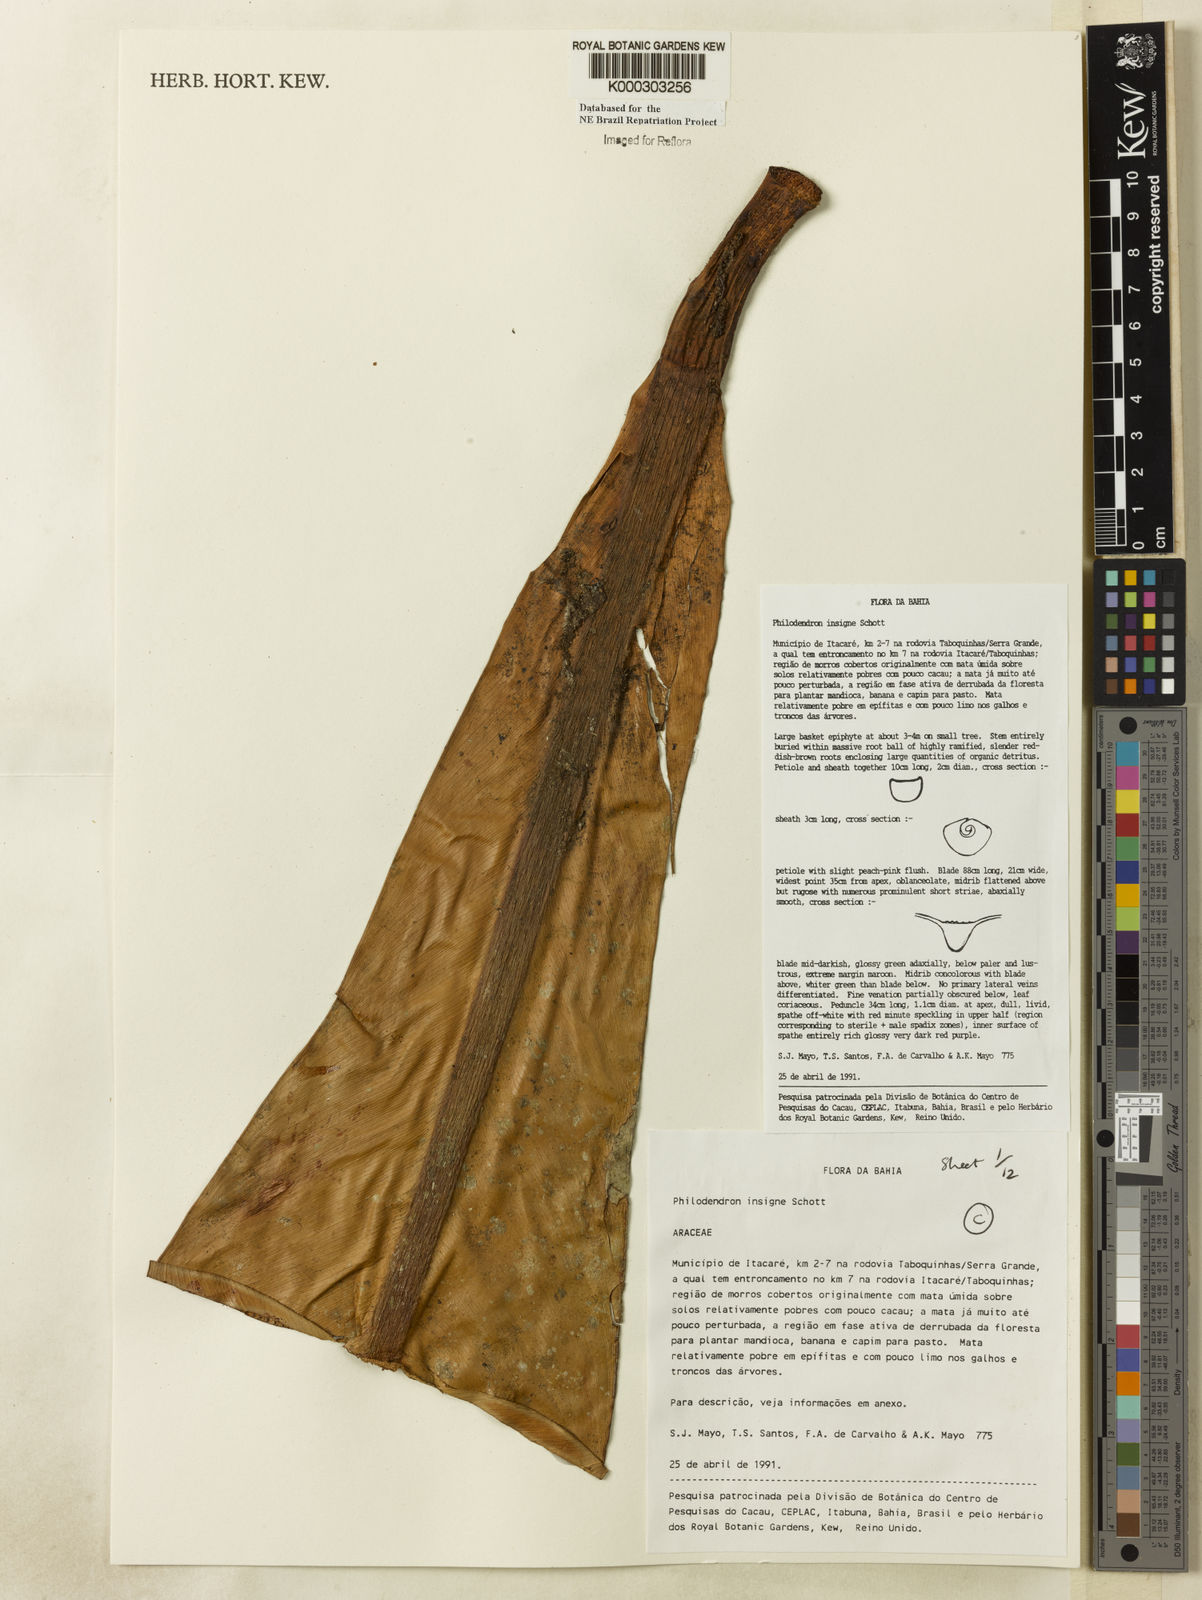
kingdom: Plantae
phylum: Tracheophyta
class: Liliopsida
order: Alismatales
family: Araceae
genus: Philodendron
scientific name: Philodendron insigne
